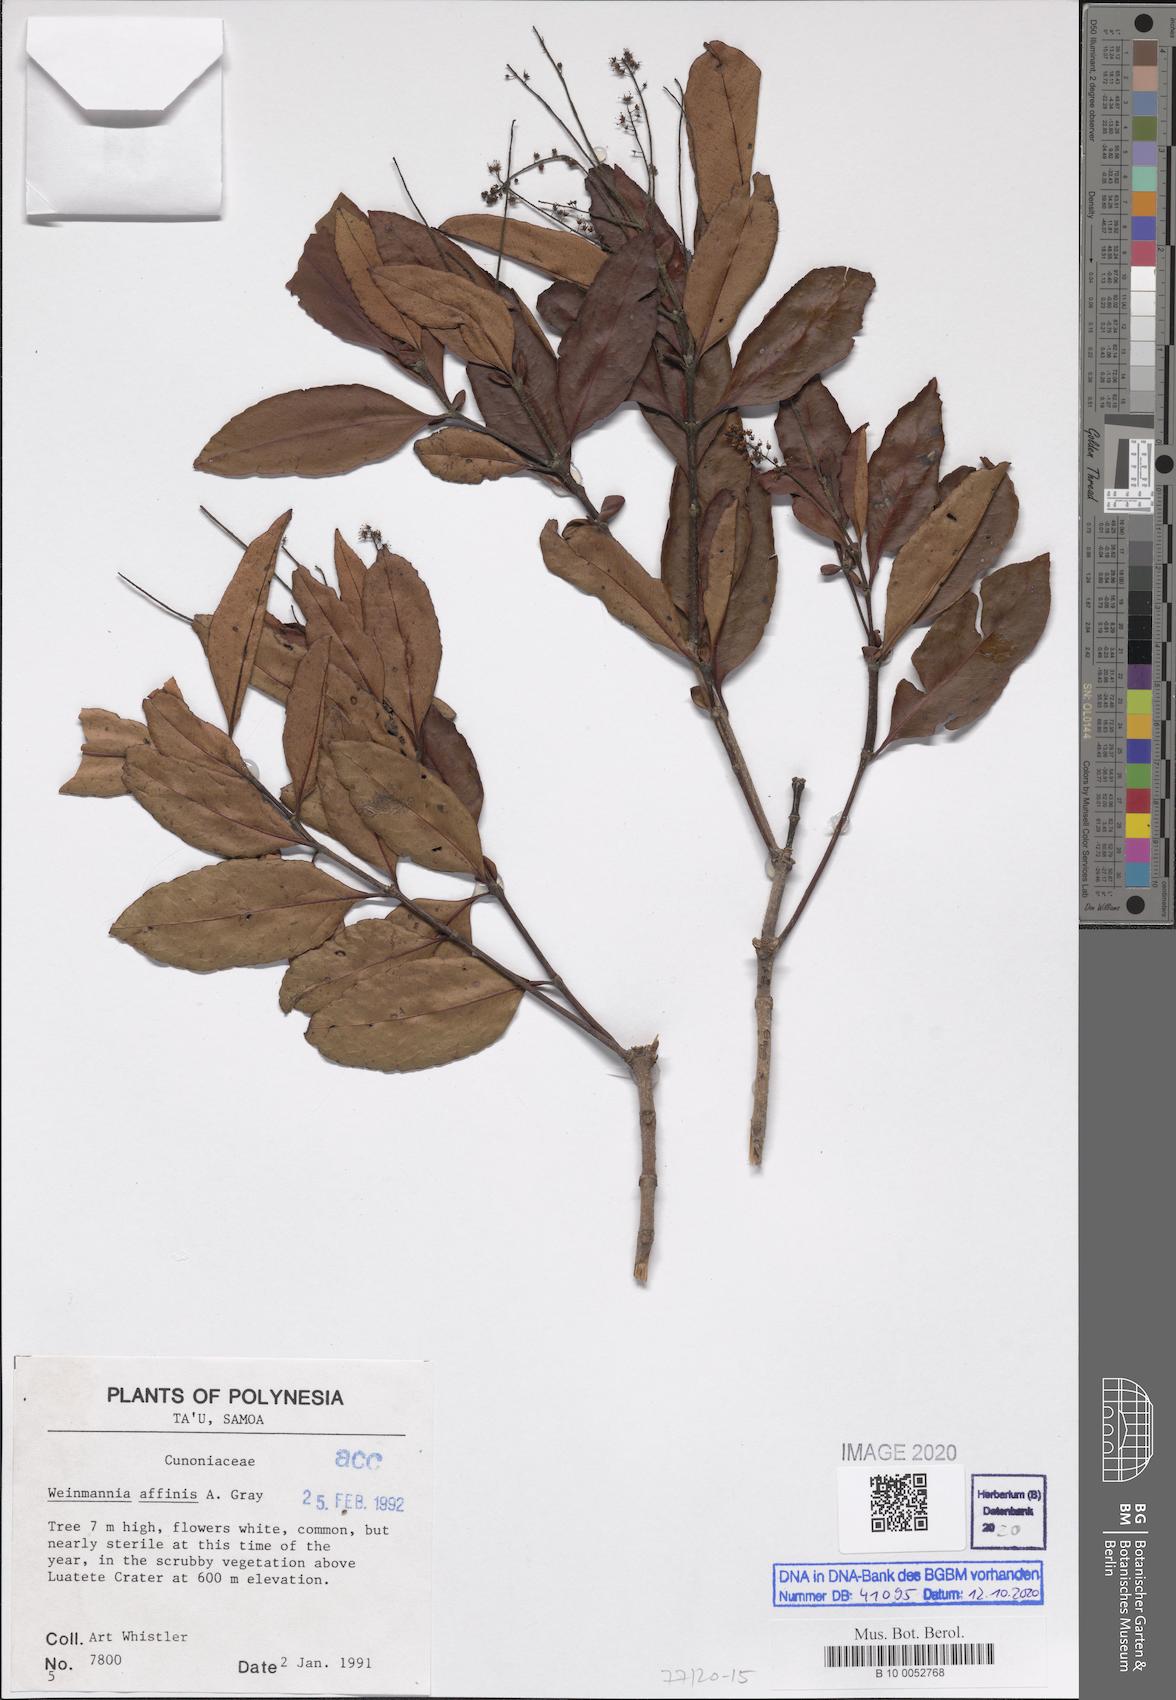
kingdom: Plantae
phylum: Tracheophyta
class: Magnoliopsida
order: Oxalidales
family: Cunoniaceae
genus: Pterophylla
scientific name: Pterophylla affinis
